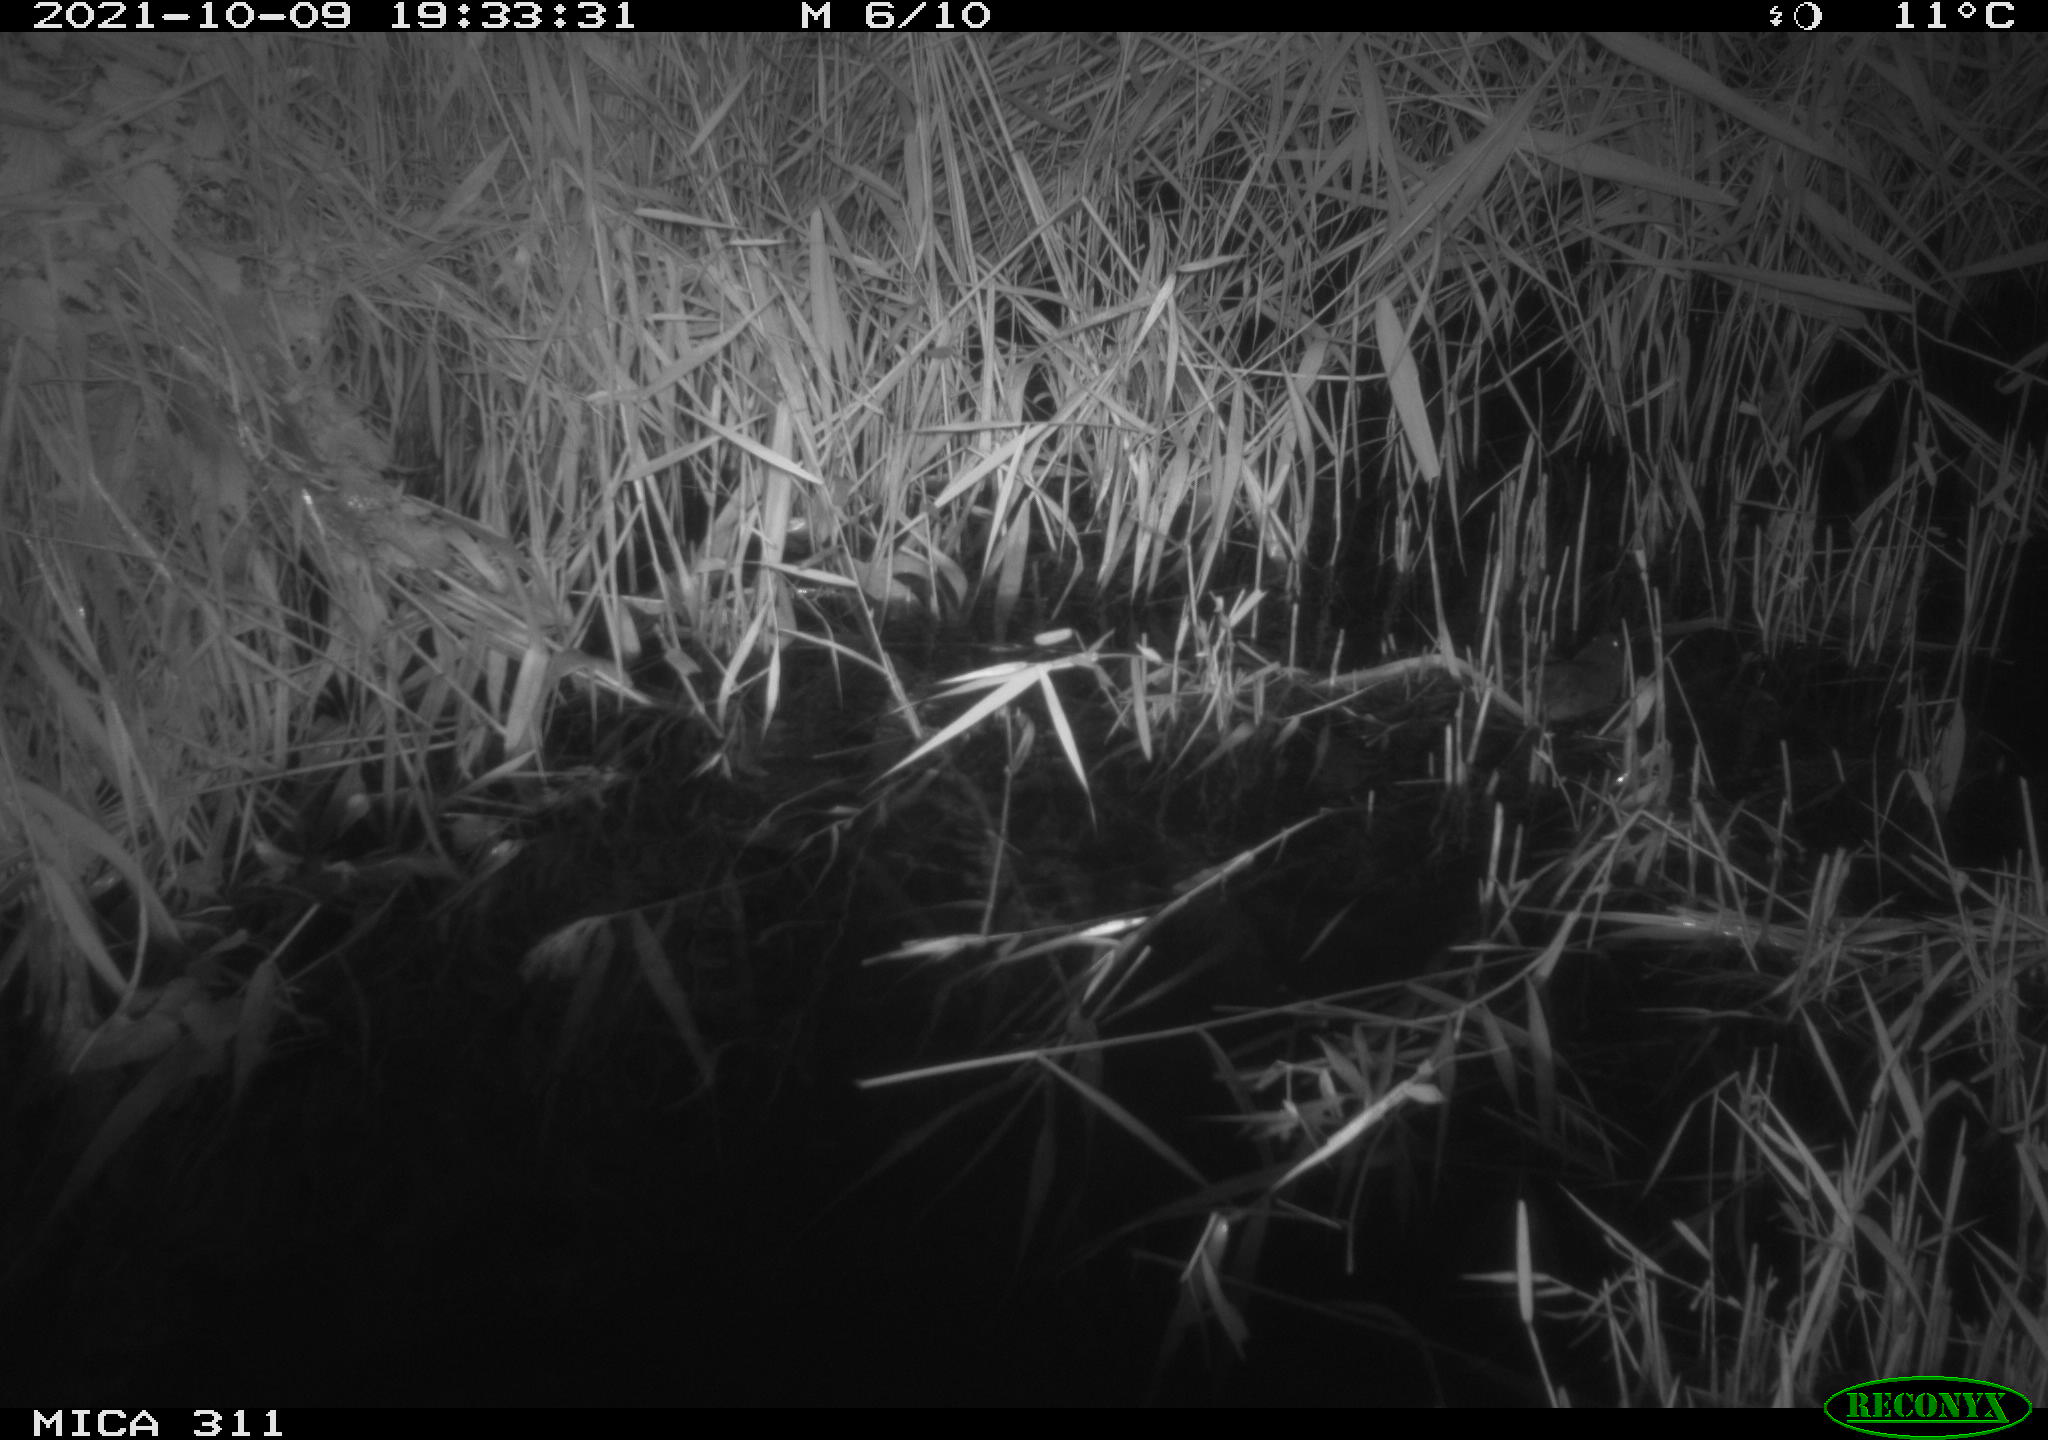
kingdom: Animalia
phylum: Chordata
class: Mammalia
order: Rodentia
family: Muridae
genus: Rattus
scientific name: Rattus norvegicus
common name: Brown rat
